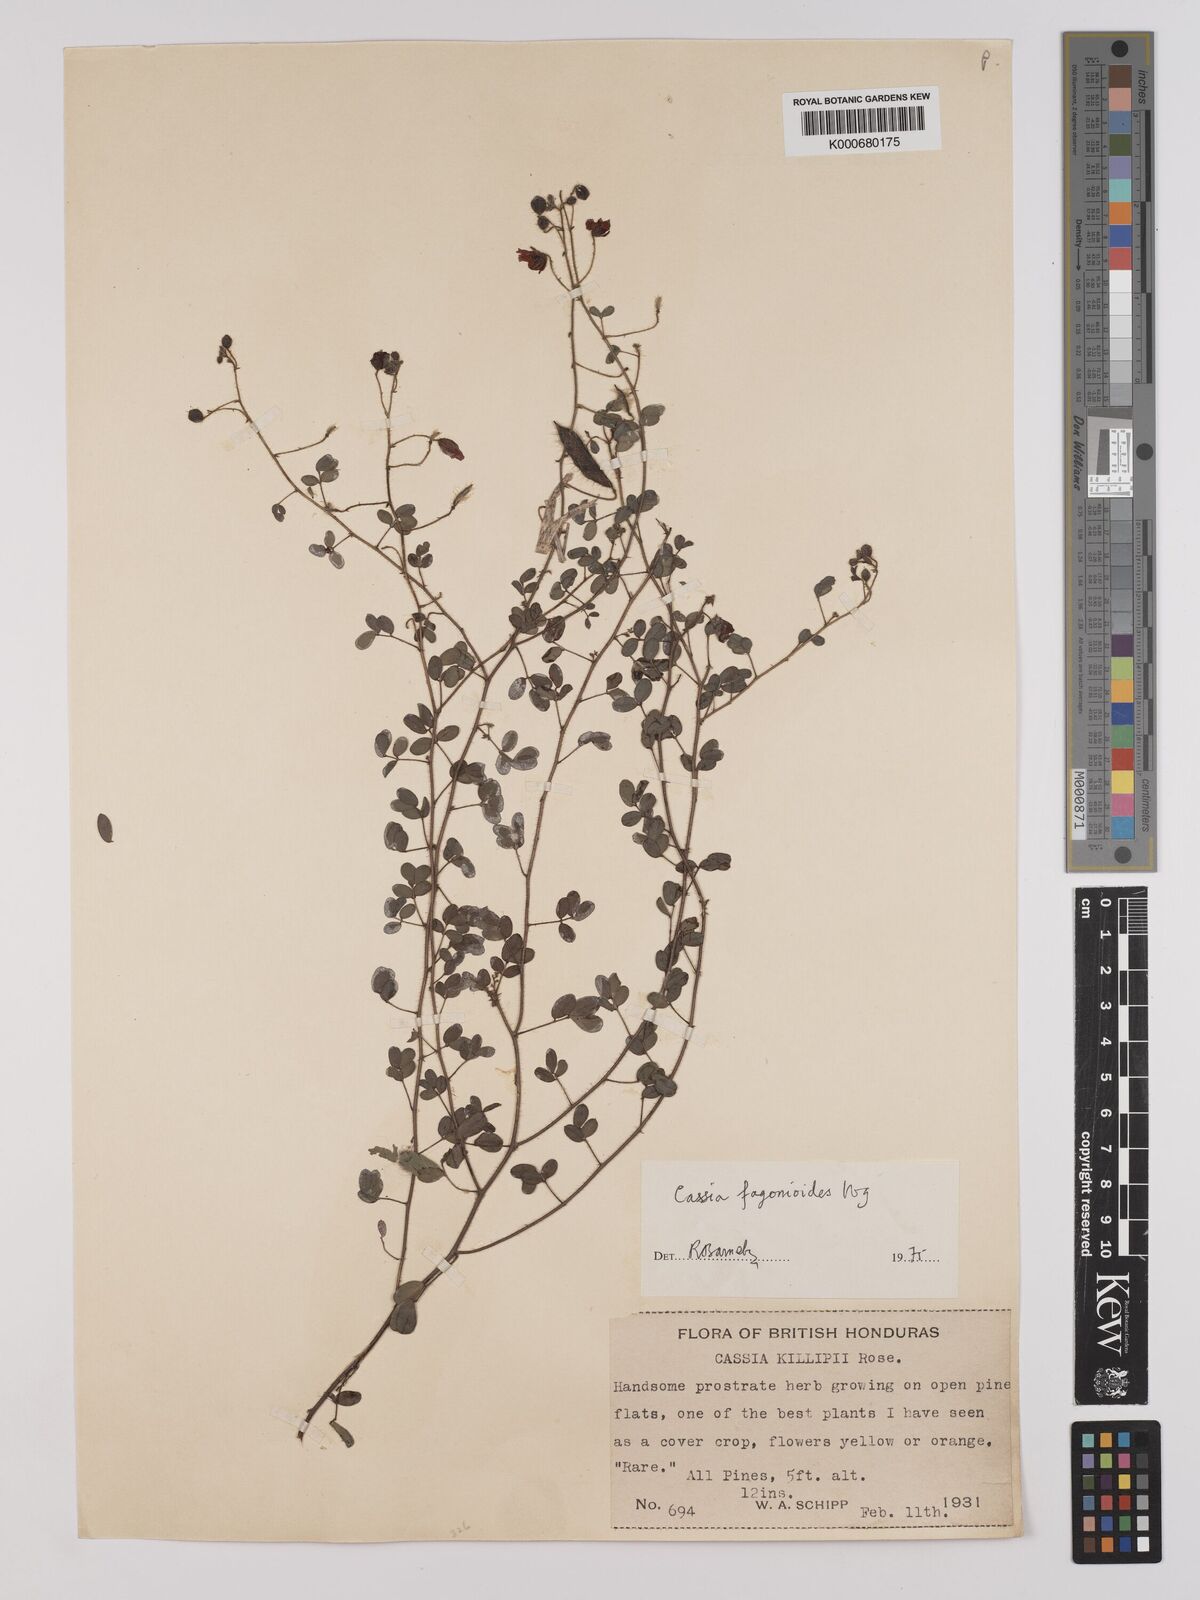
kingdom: Plantae
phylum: Tracheophyta
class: Magnoliopsida
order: Fabales
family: Fabaceae
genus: Chamaecrista
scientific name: Chamaecrista fagonioides
